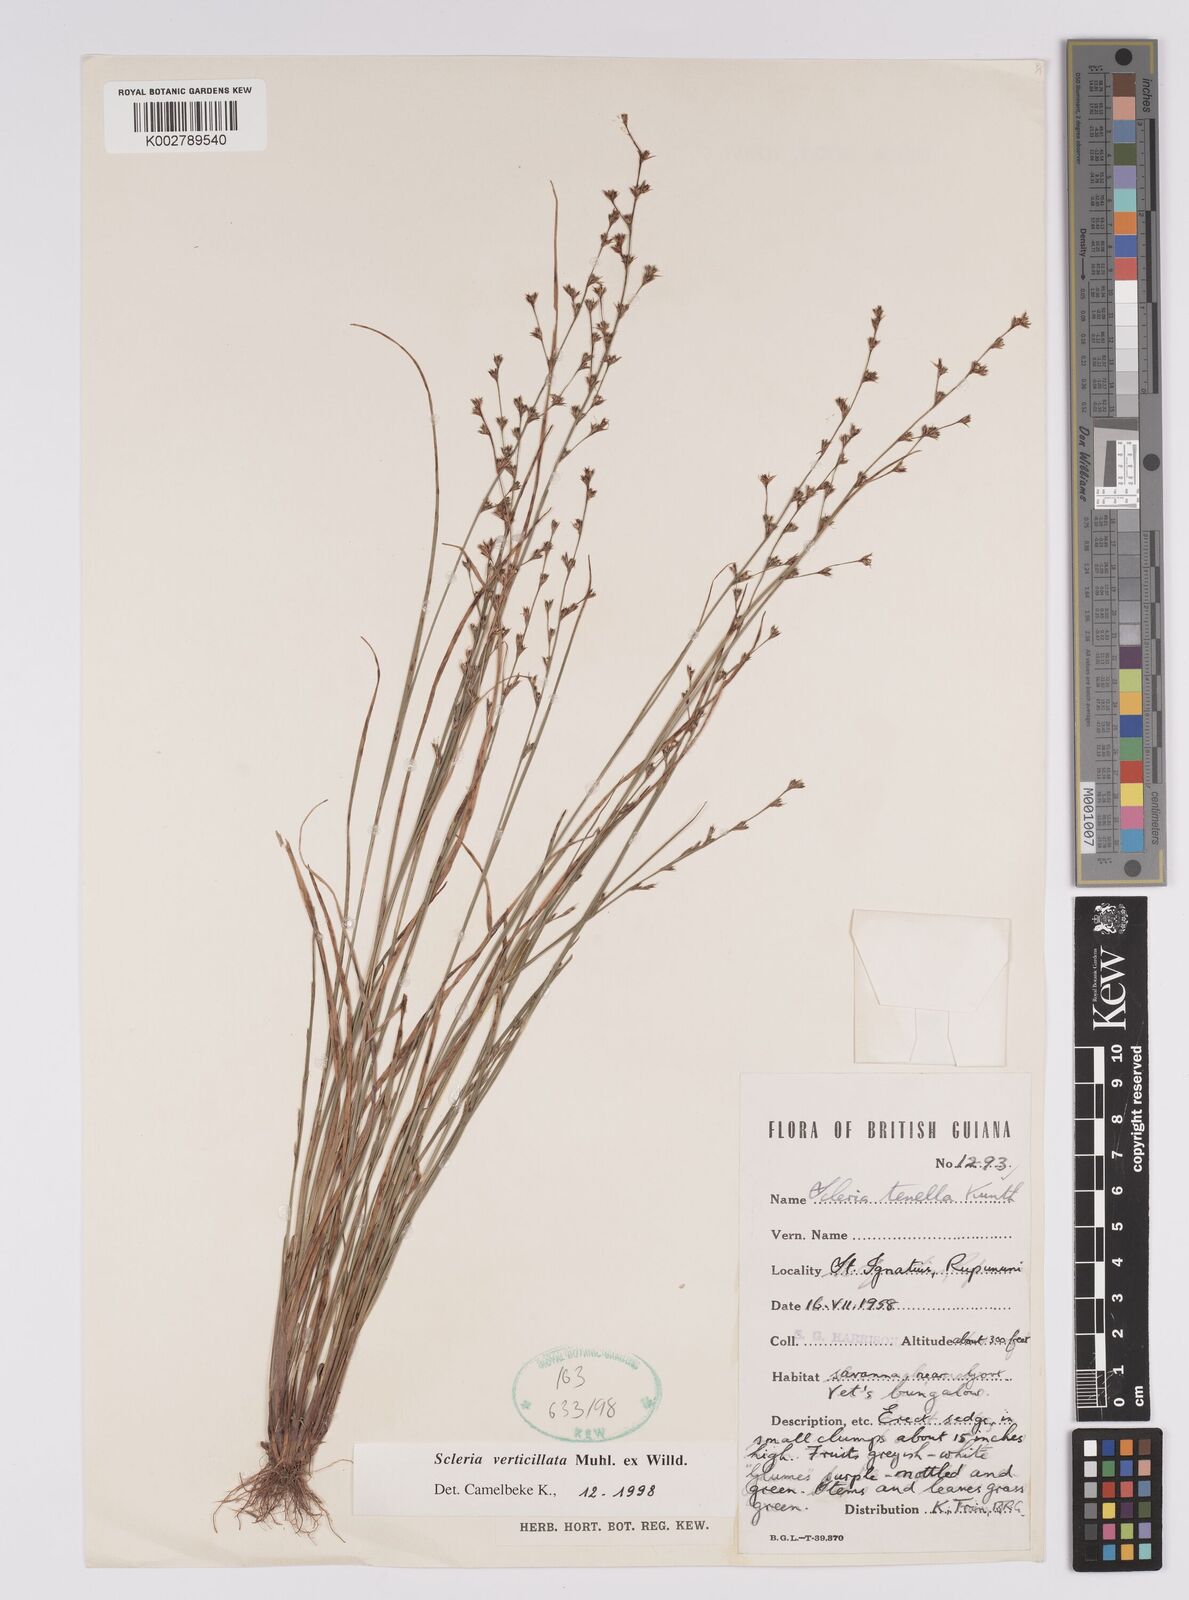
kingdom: Plantae
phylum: Tracheophyta
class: Liliopsida
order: Poales
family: Cyperaceae
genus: Scleria
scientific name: Scleria verticillata
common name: Low nutrush
